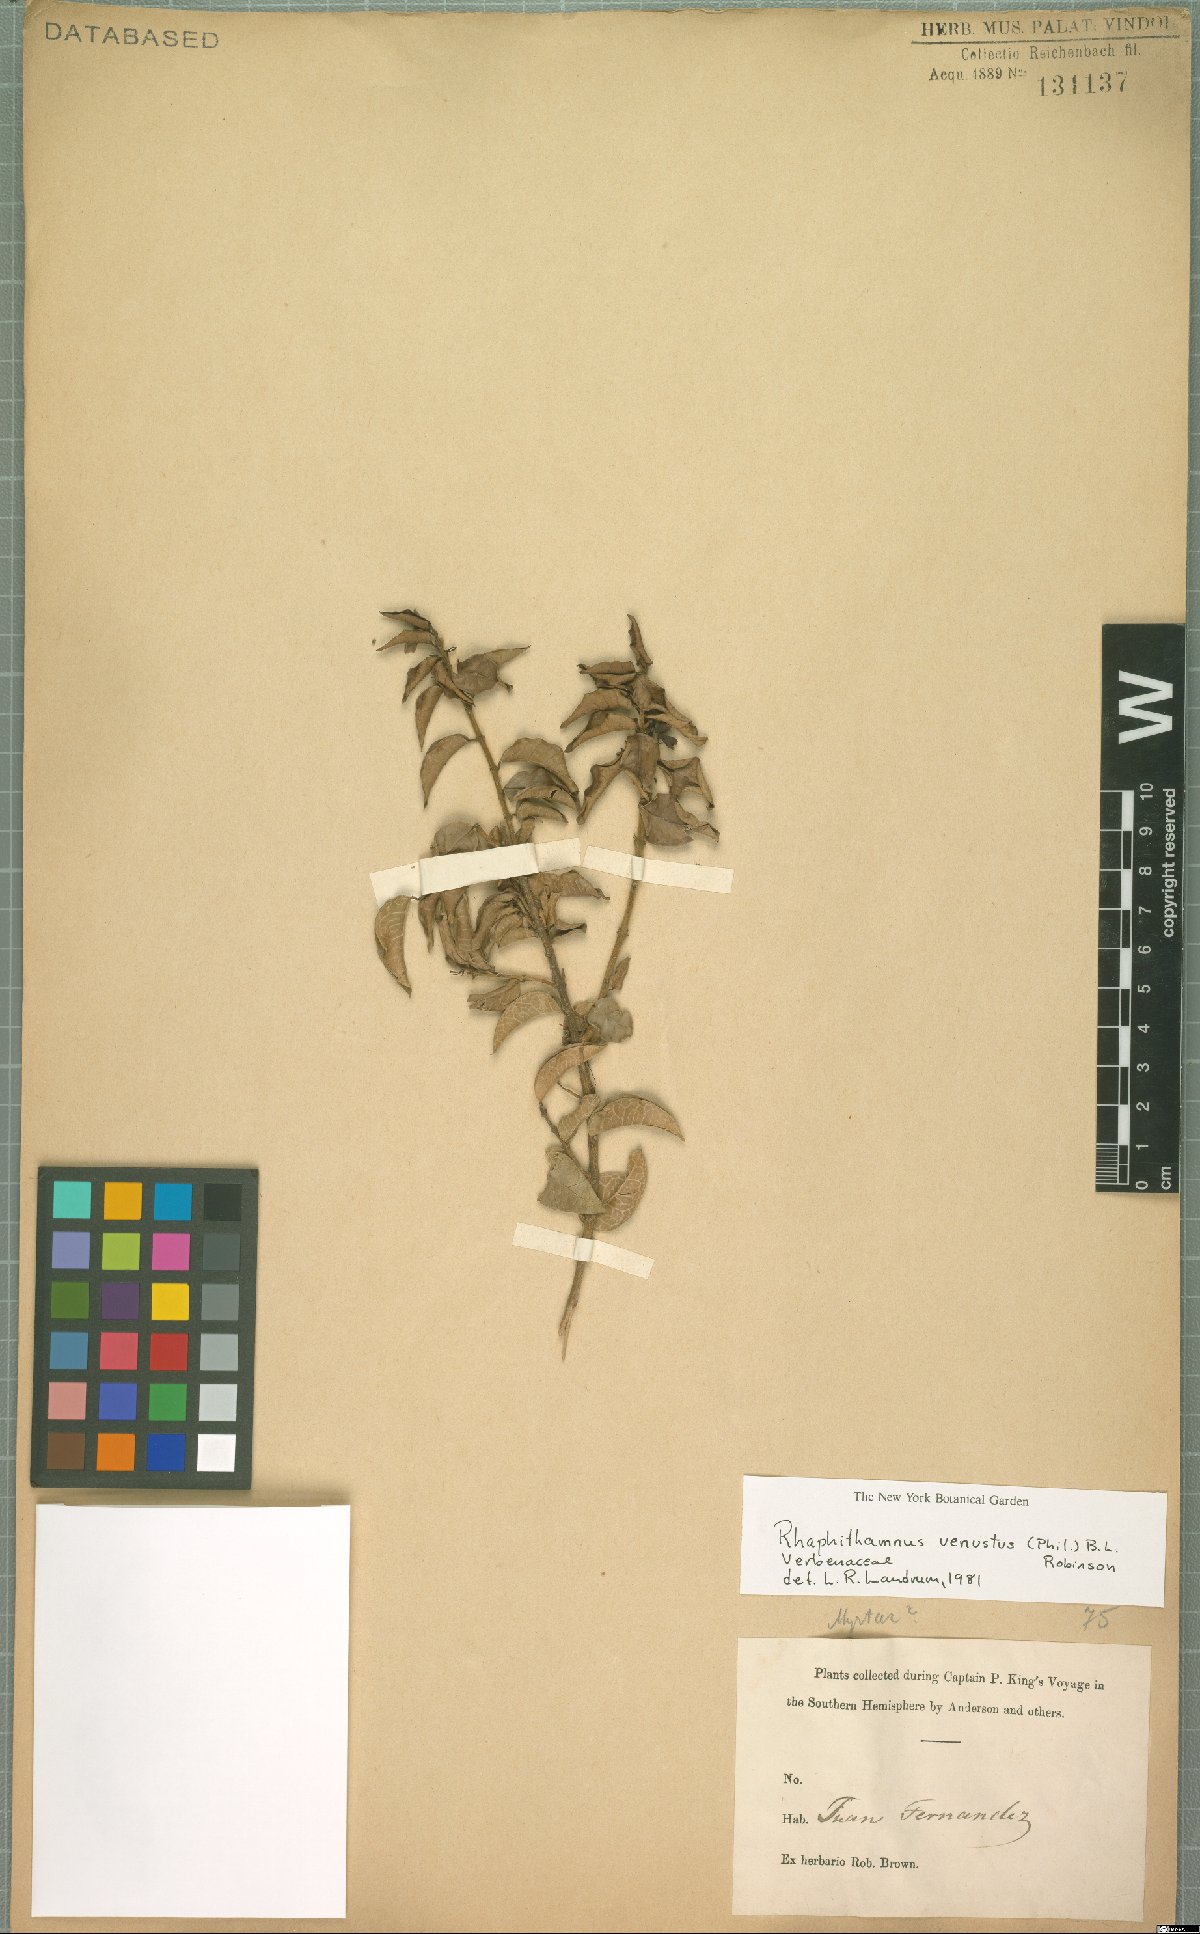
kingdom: Plantae
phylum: Tracheophyta
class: Magnoliopsida
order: Lamiales
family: Verbenaceae
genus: Rhaphithamnus
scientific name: Rhaphithamnus venustus
